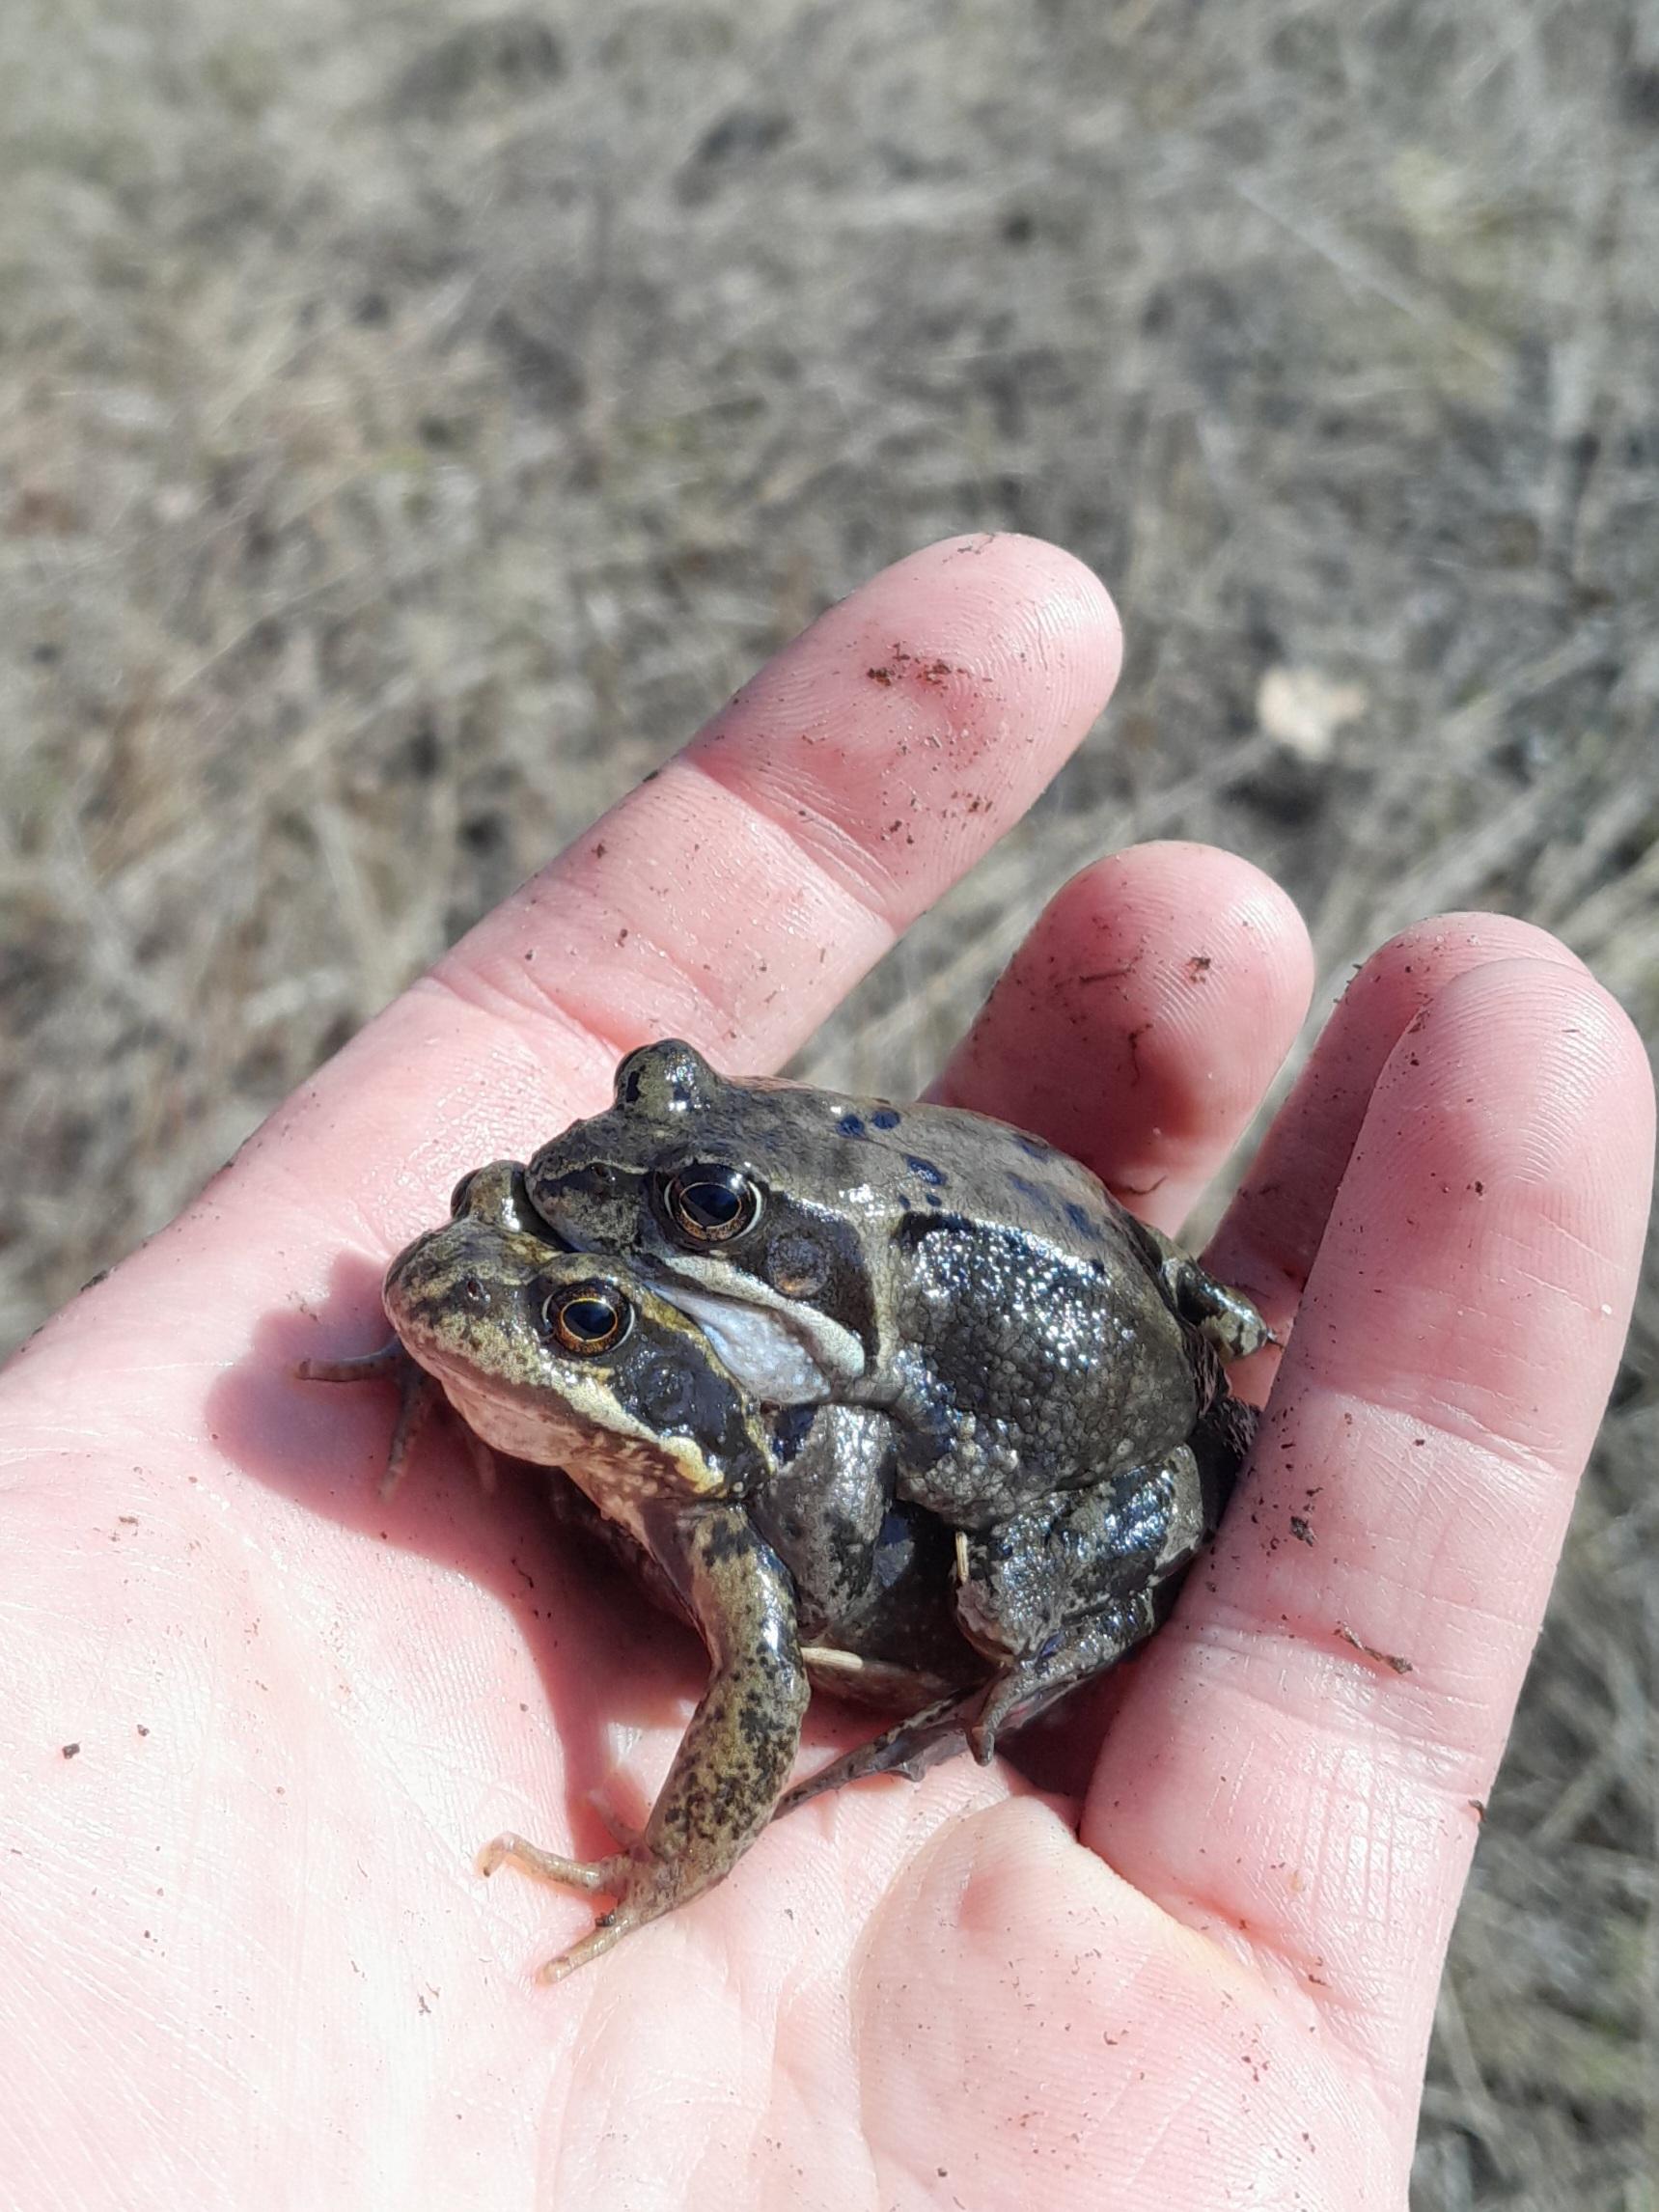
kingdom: Animalia
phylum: Chordata
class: Amphibia
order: Anura
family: Ranidae
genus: Rana
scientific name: Rana temporaria
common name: Butsnudet frø
